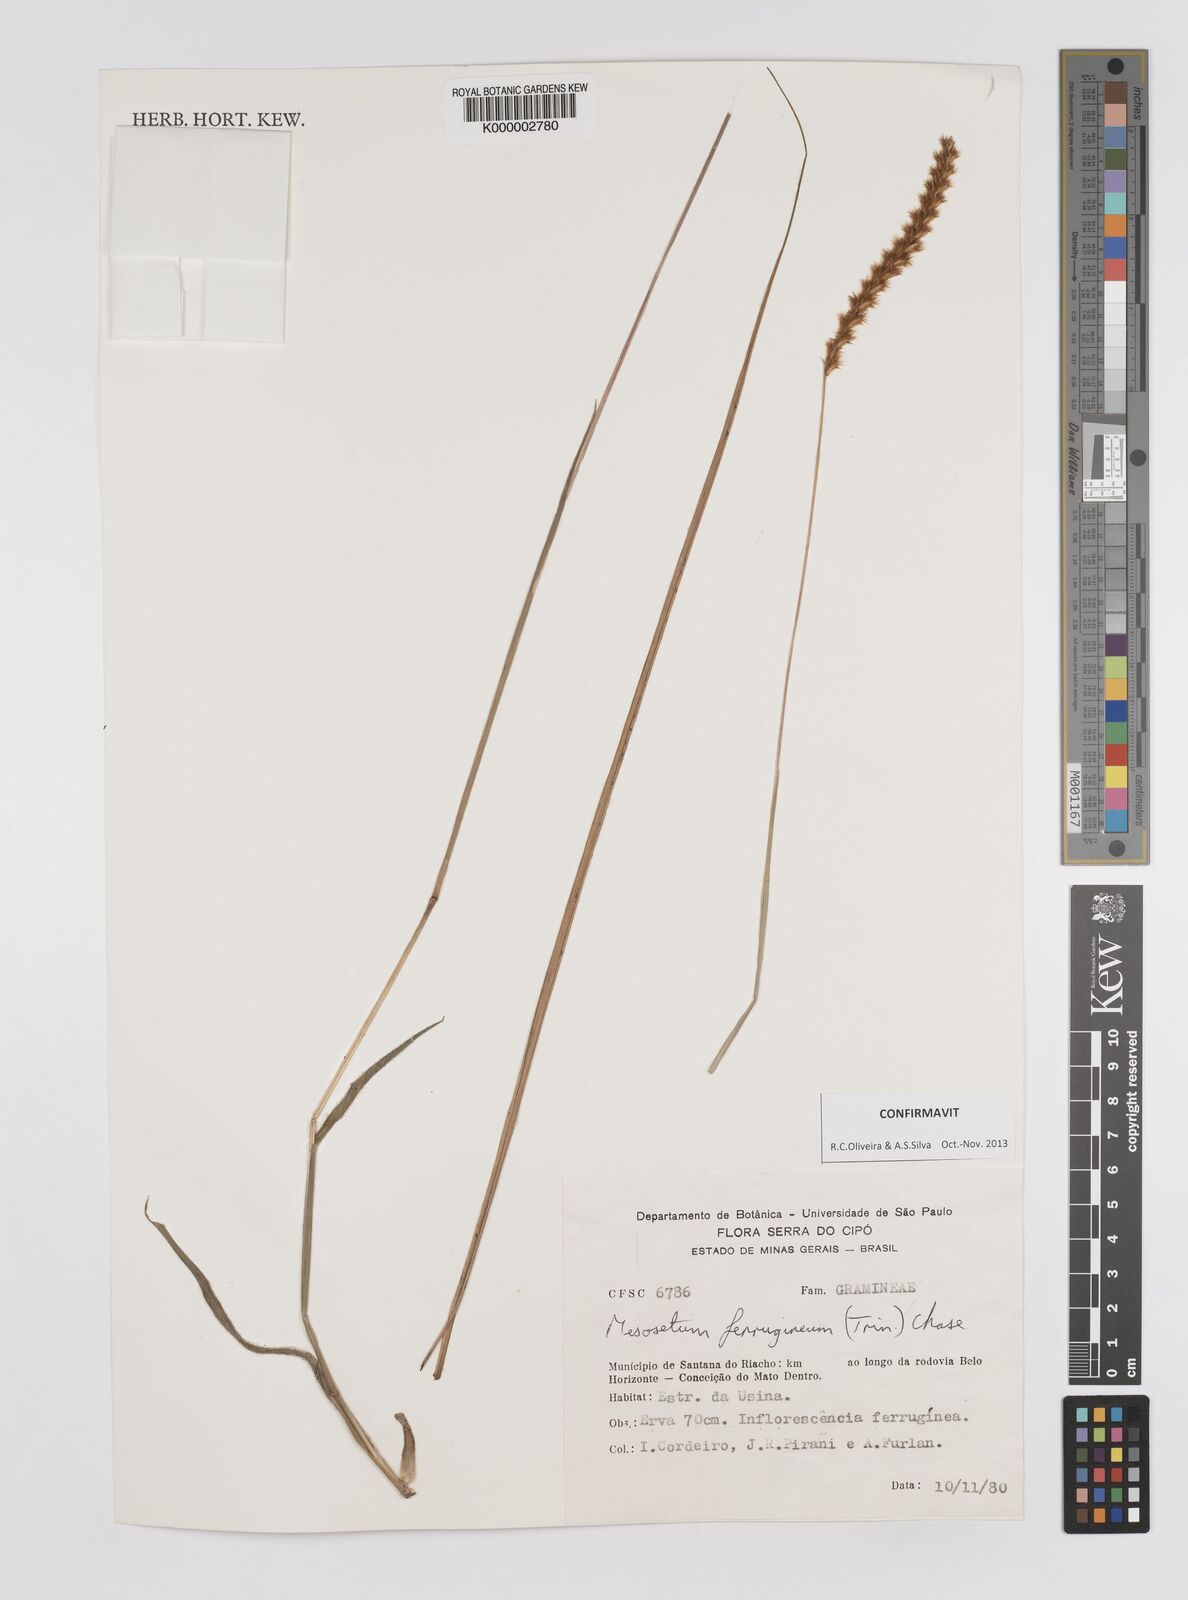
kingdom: Plantae
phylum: Tracheophyta
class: Liliopsida
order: Poales
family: Poaceae
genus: Mesosetum
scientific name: Mesosetum ferrugineum
